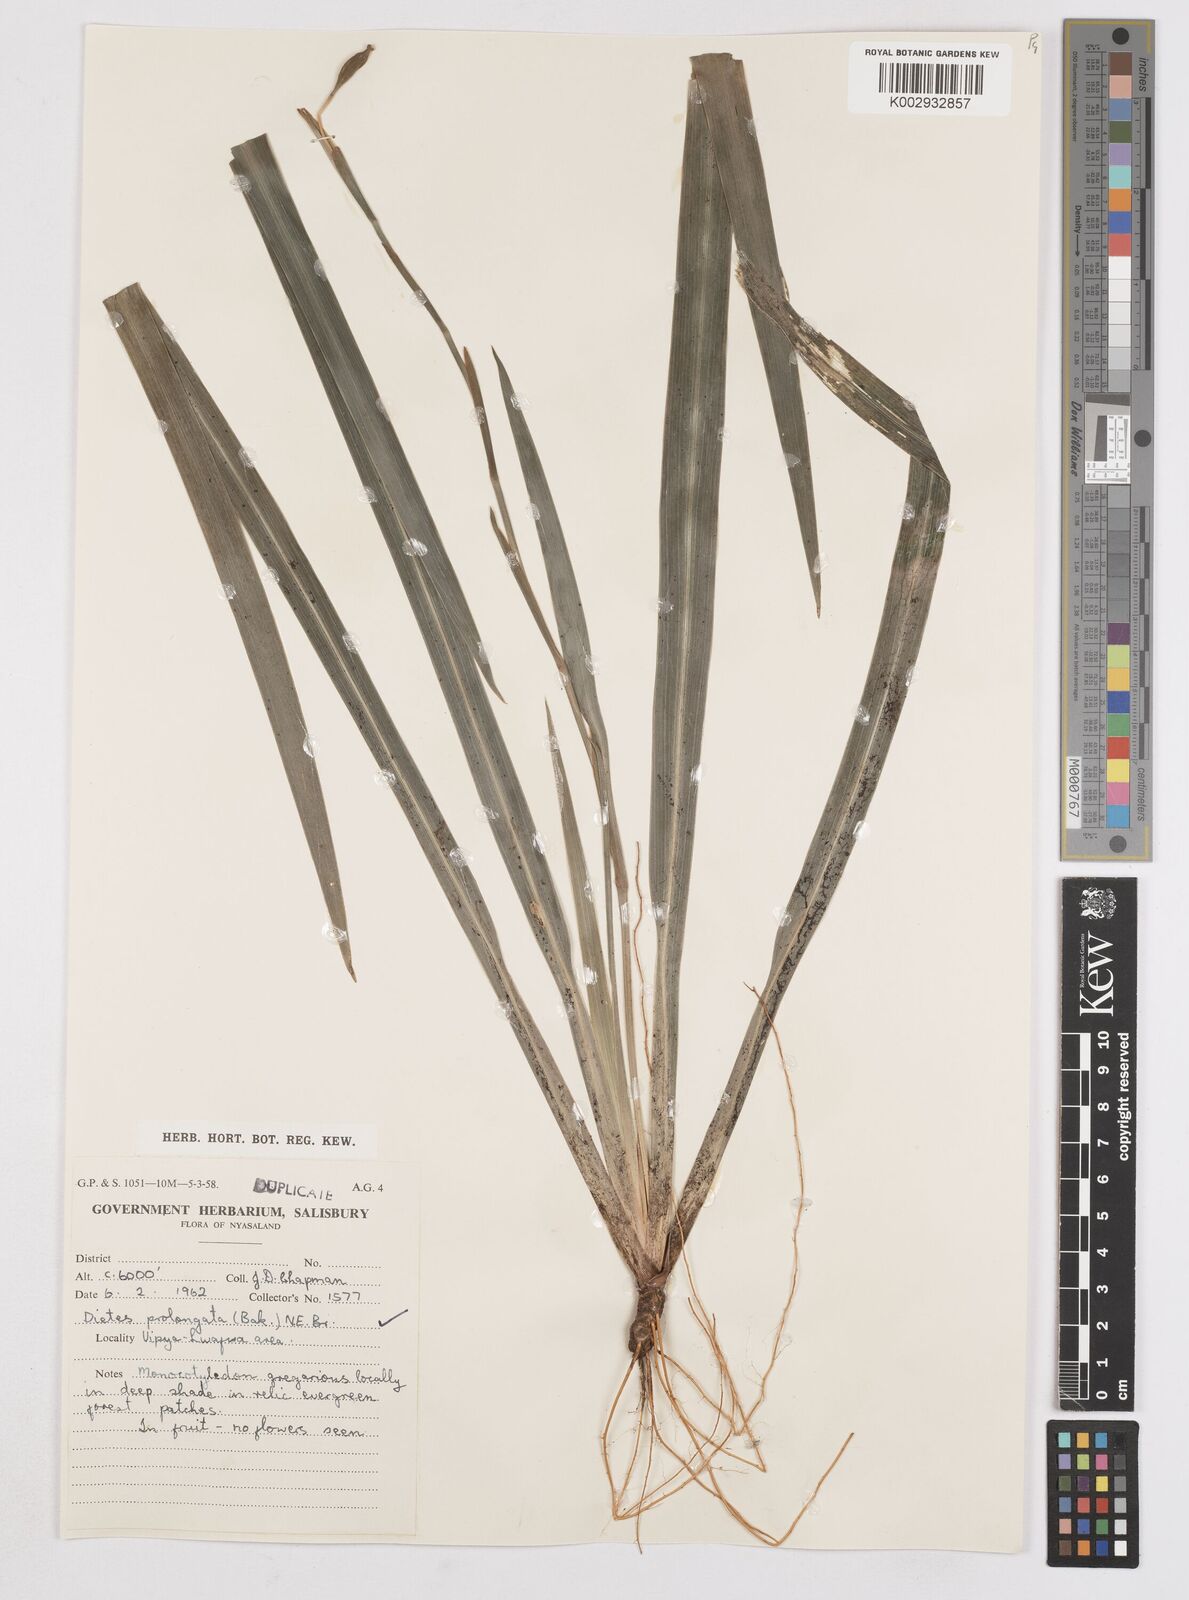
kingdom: Plantae
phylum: Tracheophyta
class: Liliopsida
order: Asparagales
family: Iridaceae
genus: Dietes
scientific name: Dietes iridioides
